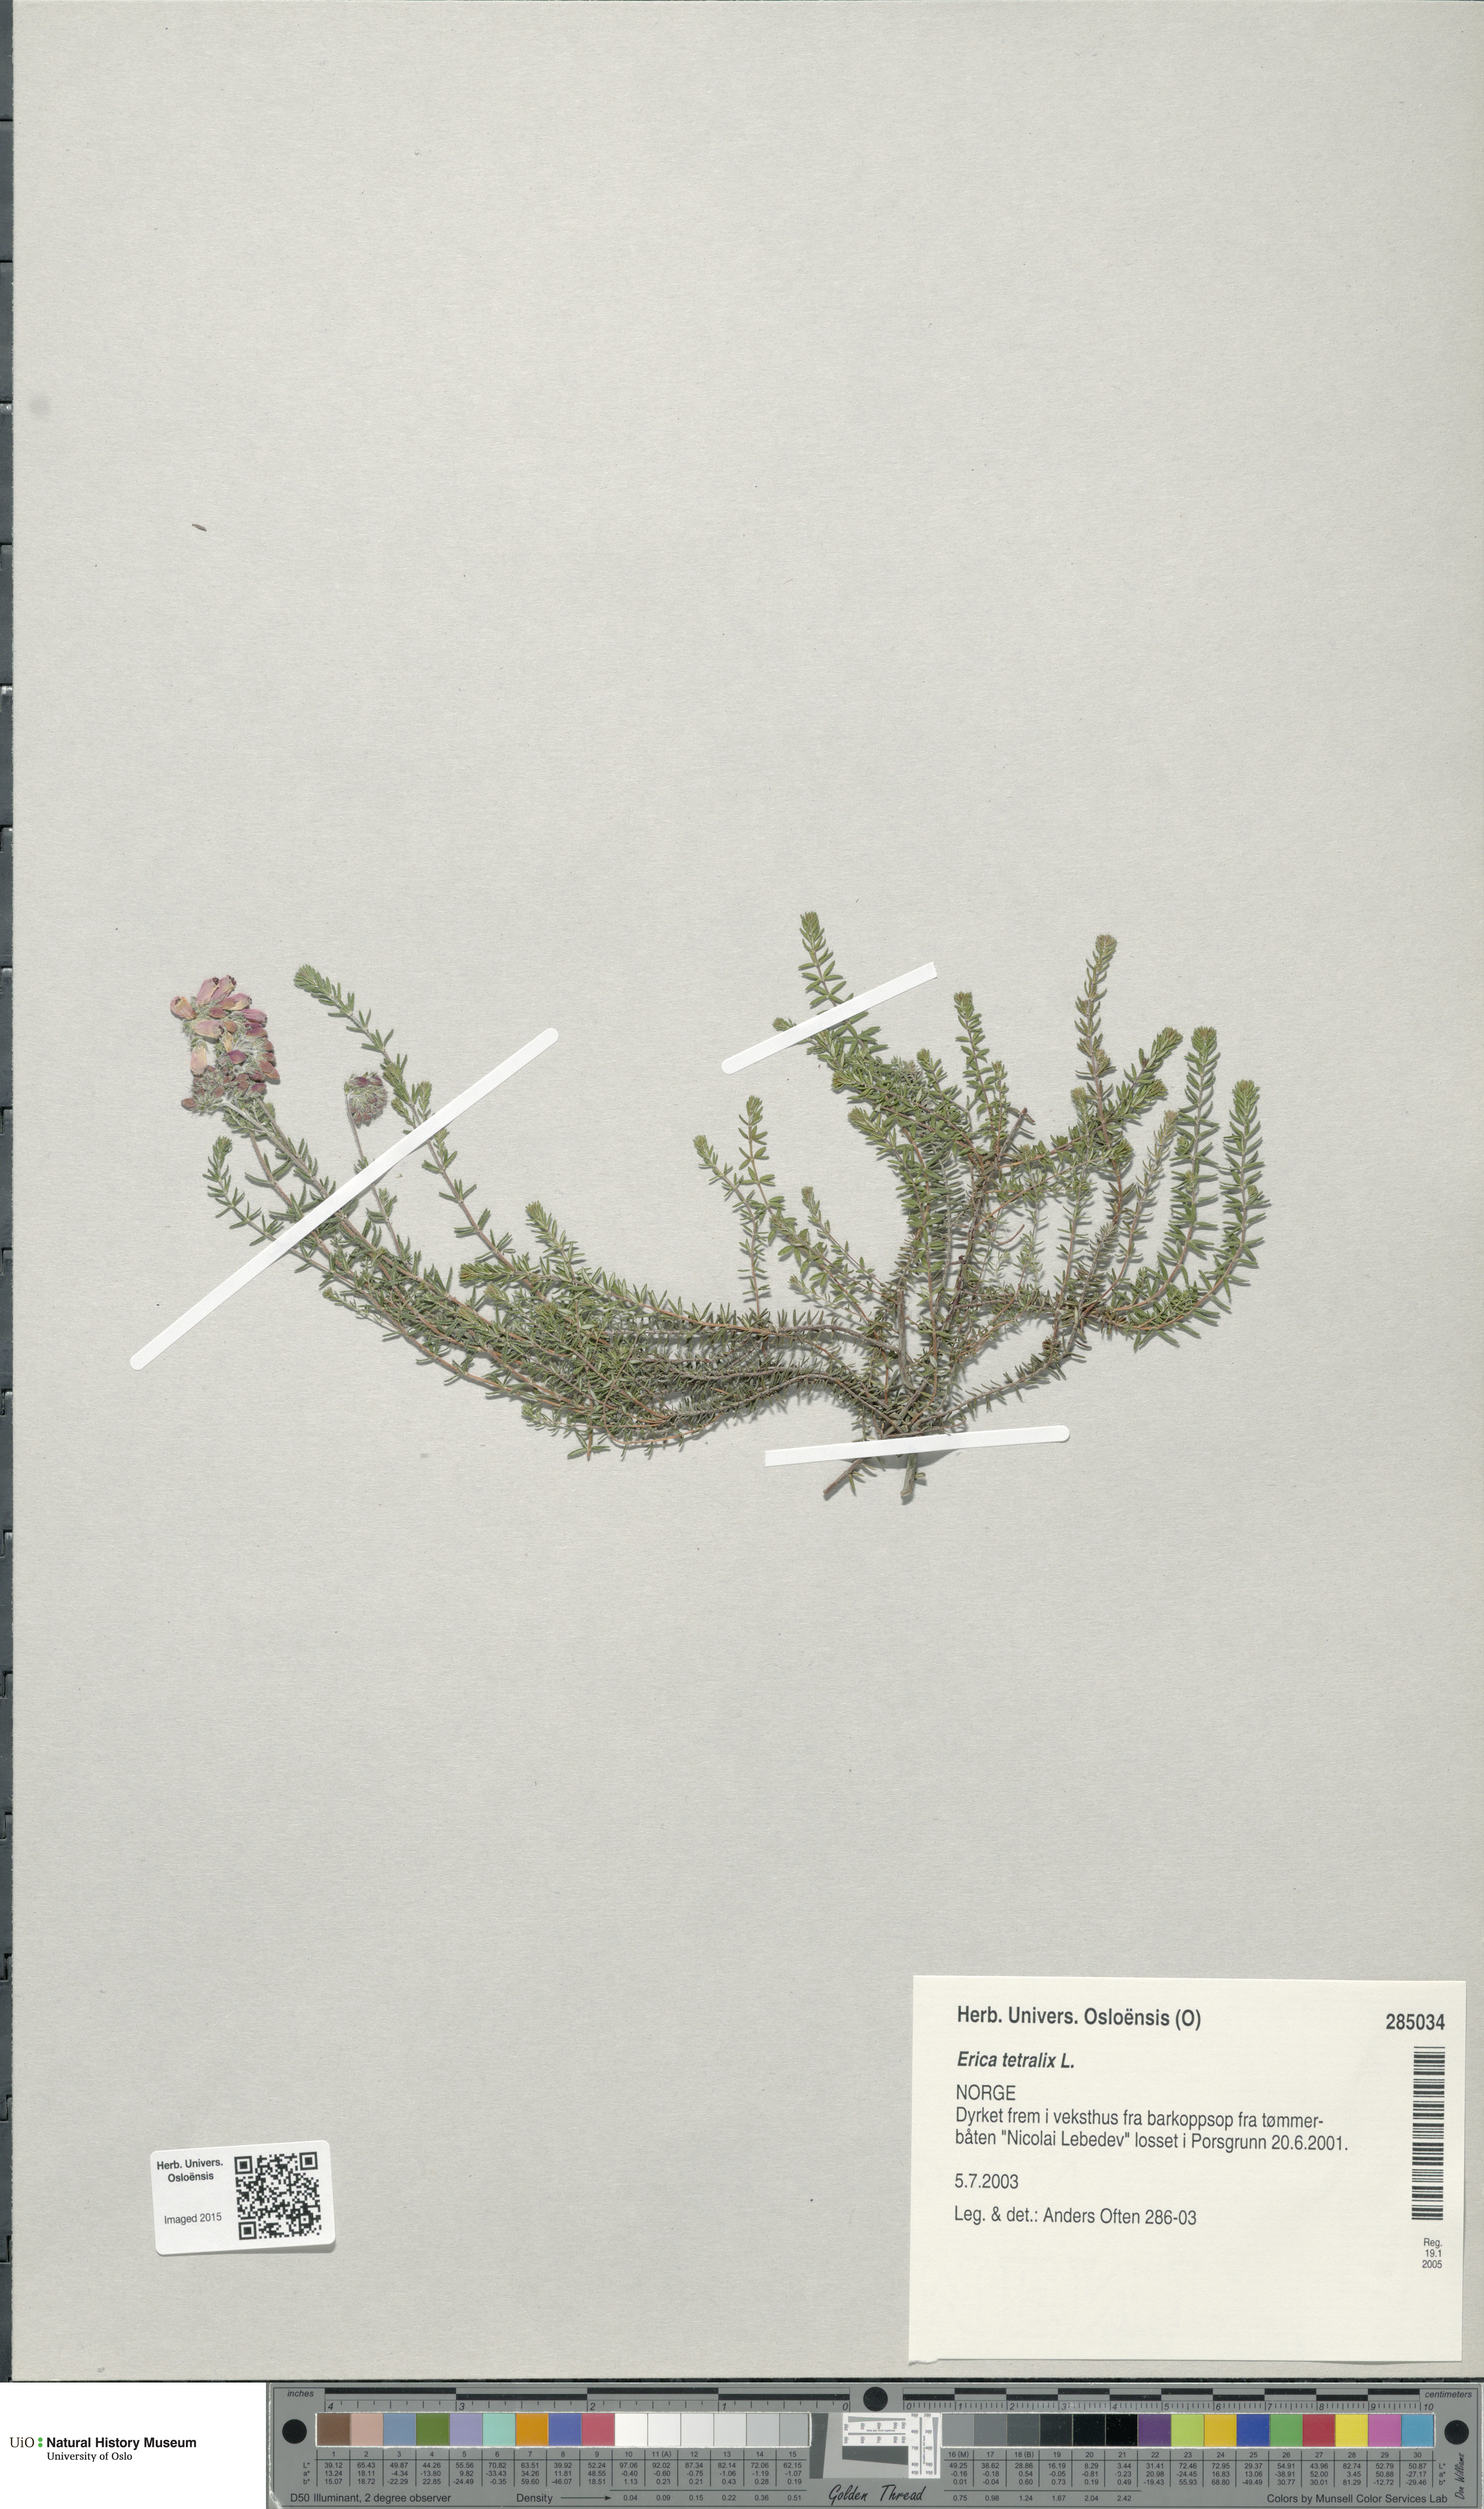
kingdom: Plantae
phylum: Tracheophyta
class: Magnoliopsida
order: Ericales
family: Ericaceae
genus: Erica
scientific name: Erica tetralix
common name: Cross-leaved heath
